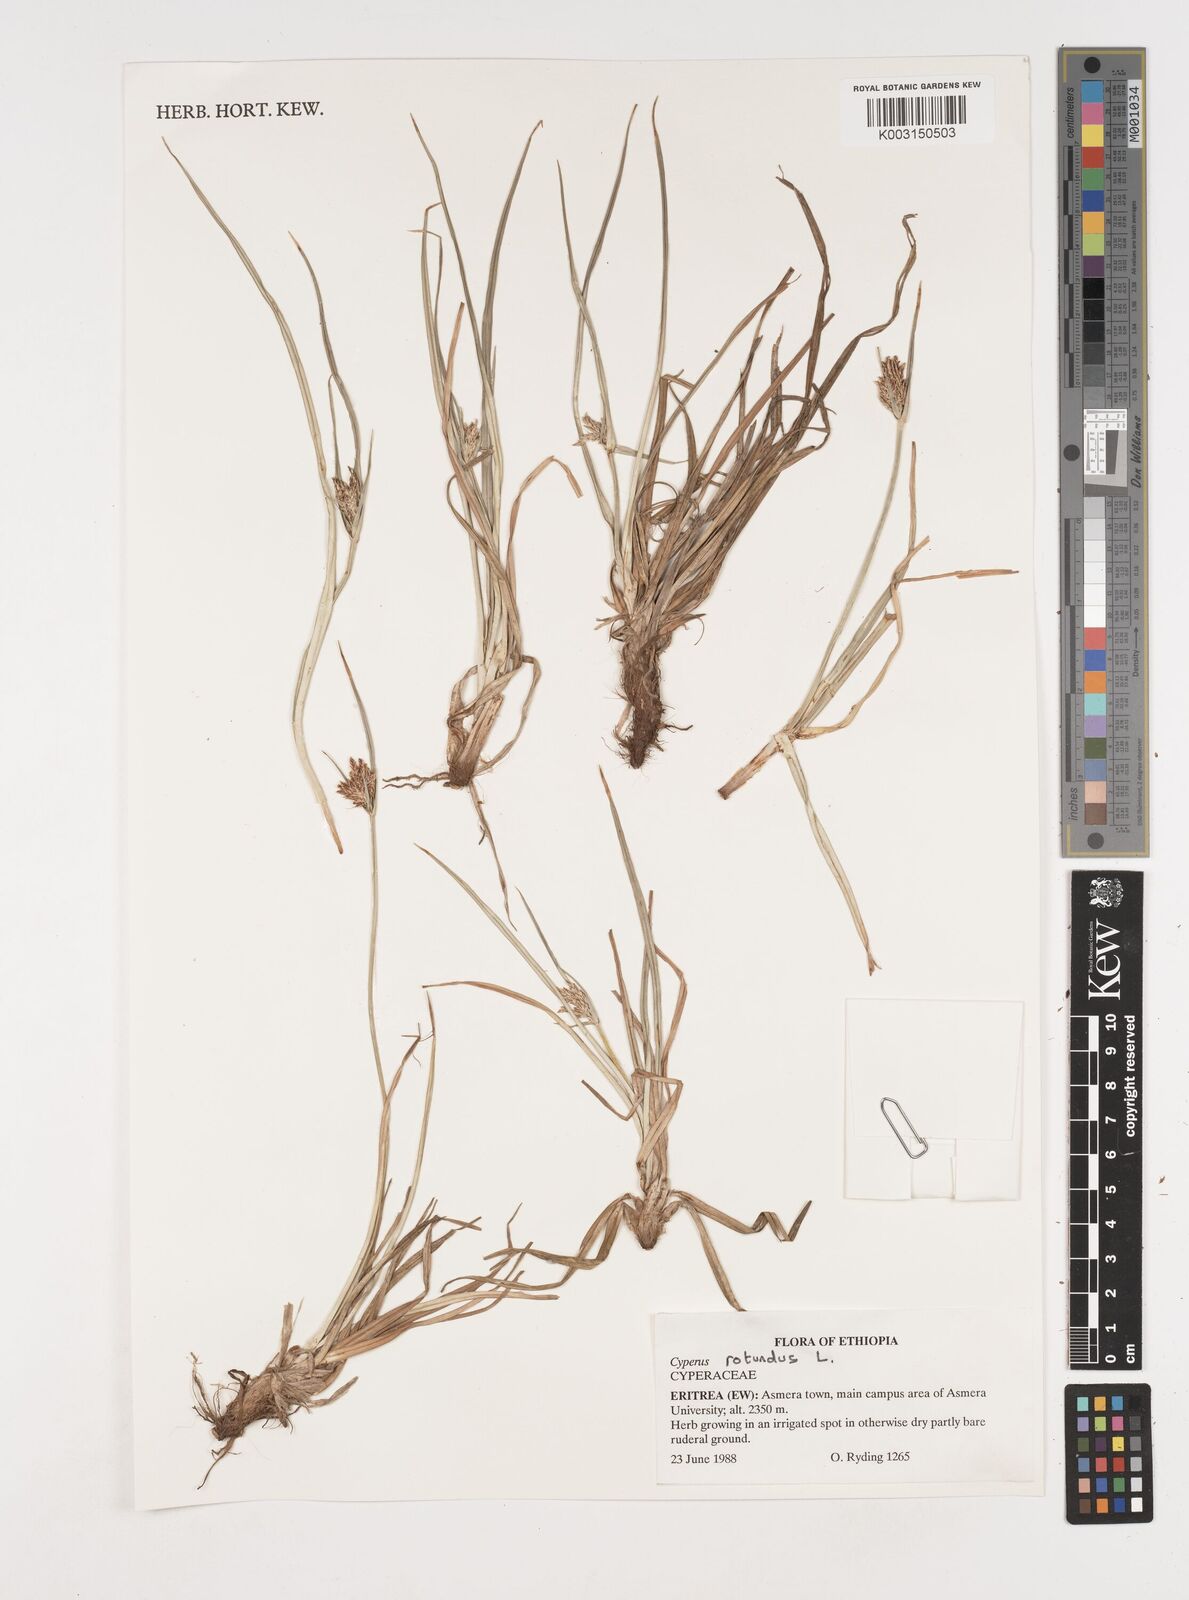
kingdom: Plantae
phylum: Tracheophyta
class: Liliopsida
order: Poales
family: Cyperaceae
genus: Cyperus
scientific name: Cyperus rotundus
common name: Nutgrass
